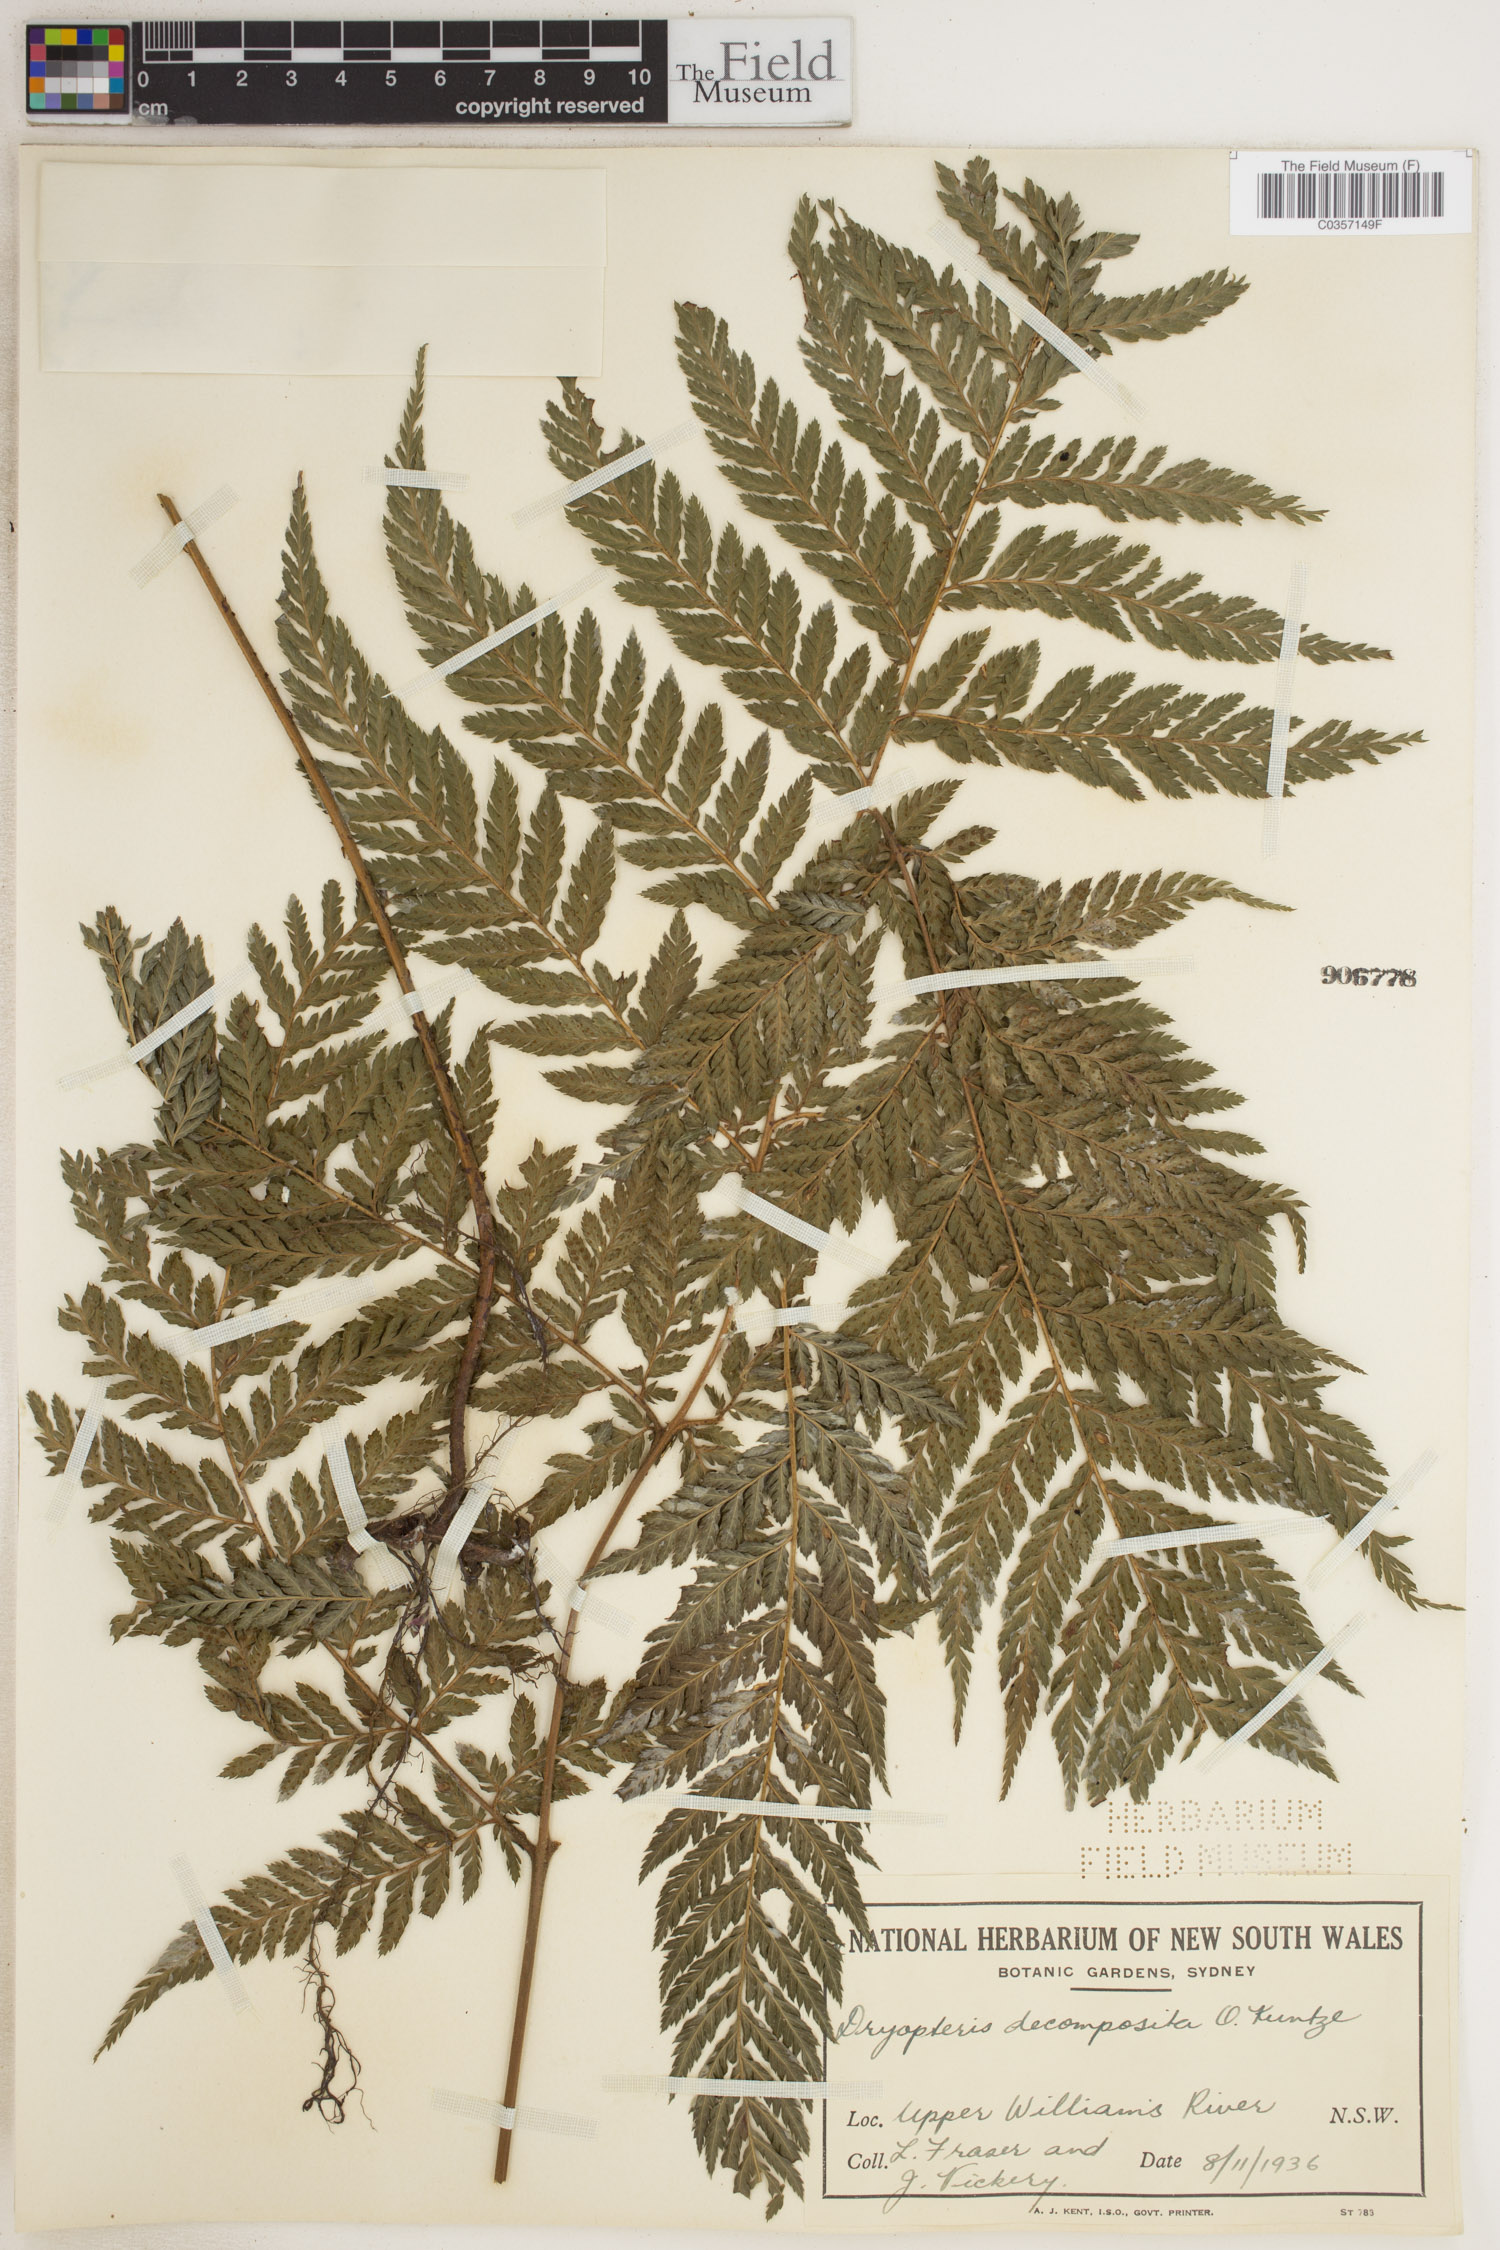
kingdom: Plantae
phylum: Tracheophyta
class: Polypodiopsida
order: Polypodiales
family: Dryopteridaceae
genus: Lastreopsis
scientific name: Lastreopsis decomposita
